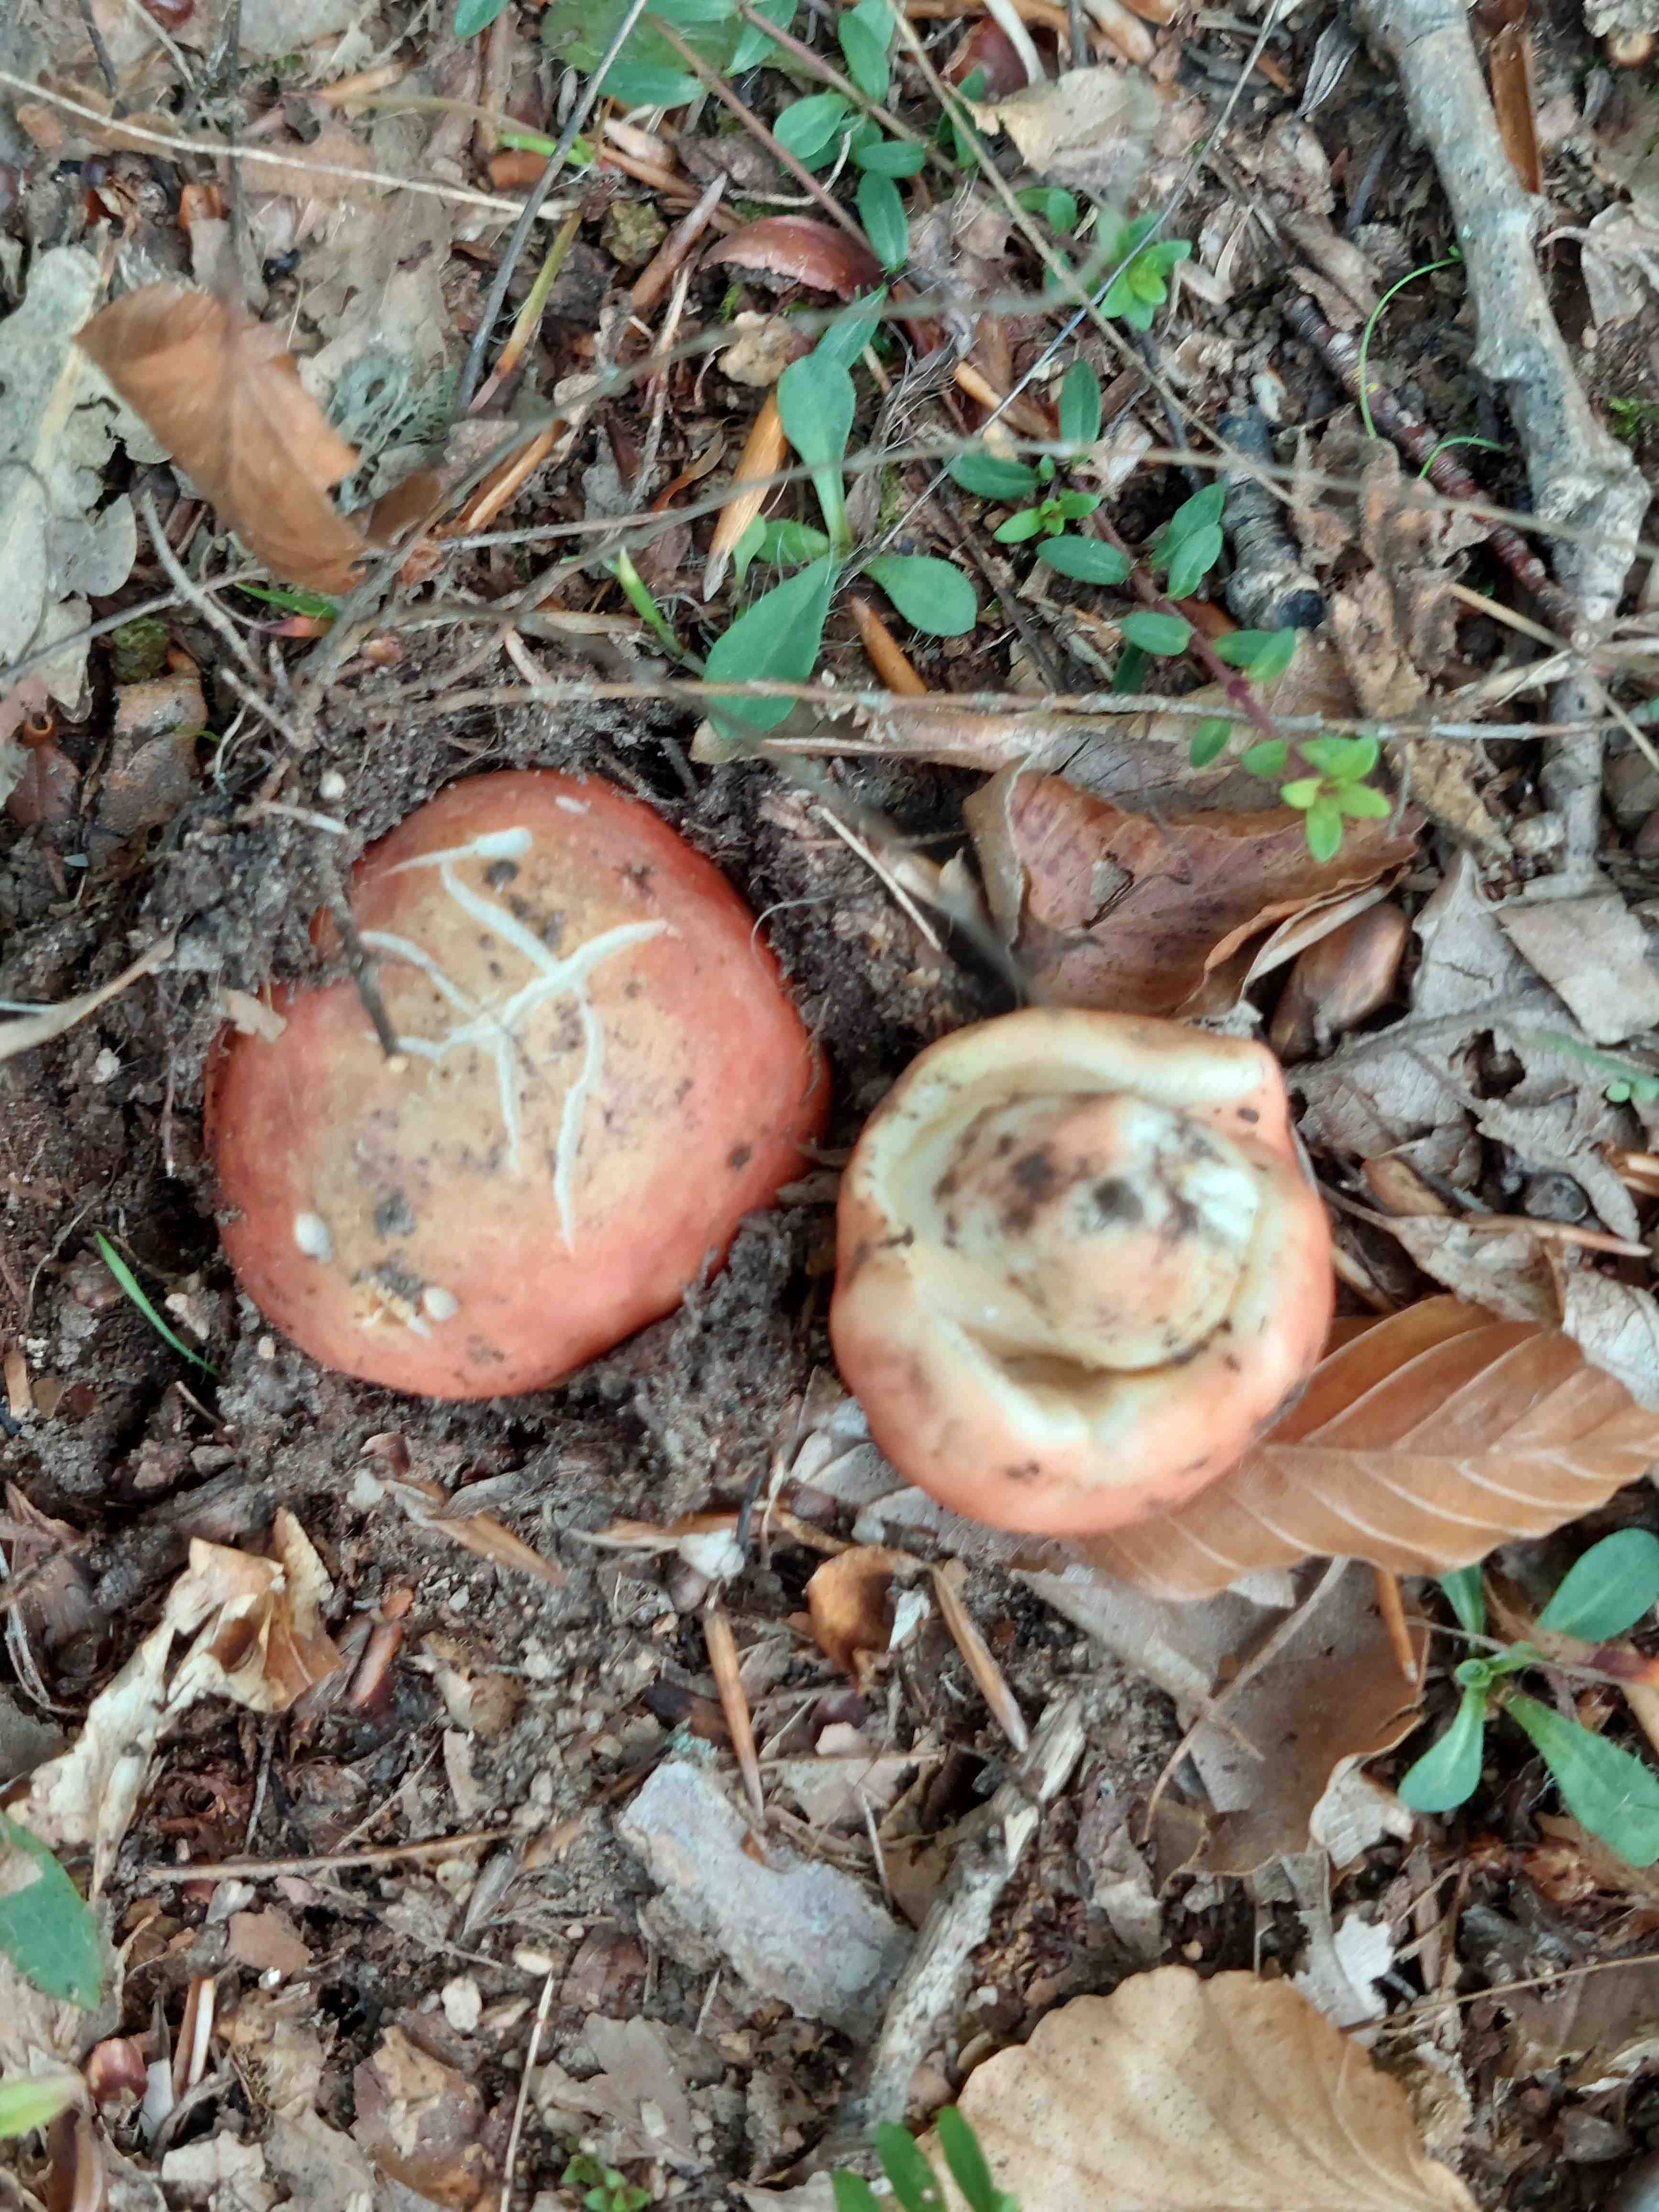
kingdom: Fungi
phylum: Basidiomycota
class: Agaricomycetes
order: Russulales
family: Russulaceae
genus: Russula
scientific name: Russula
